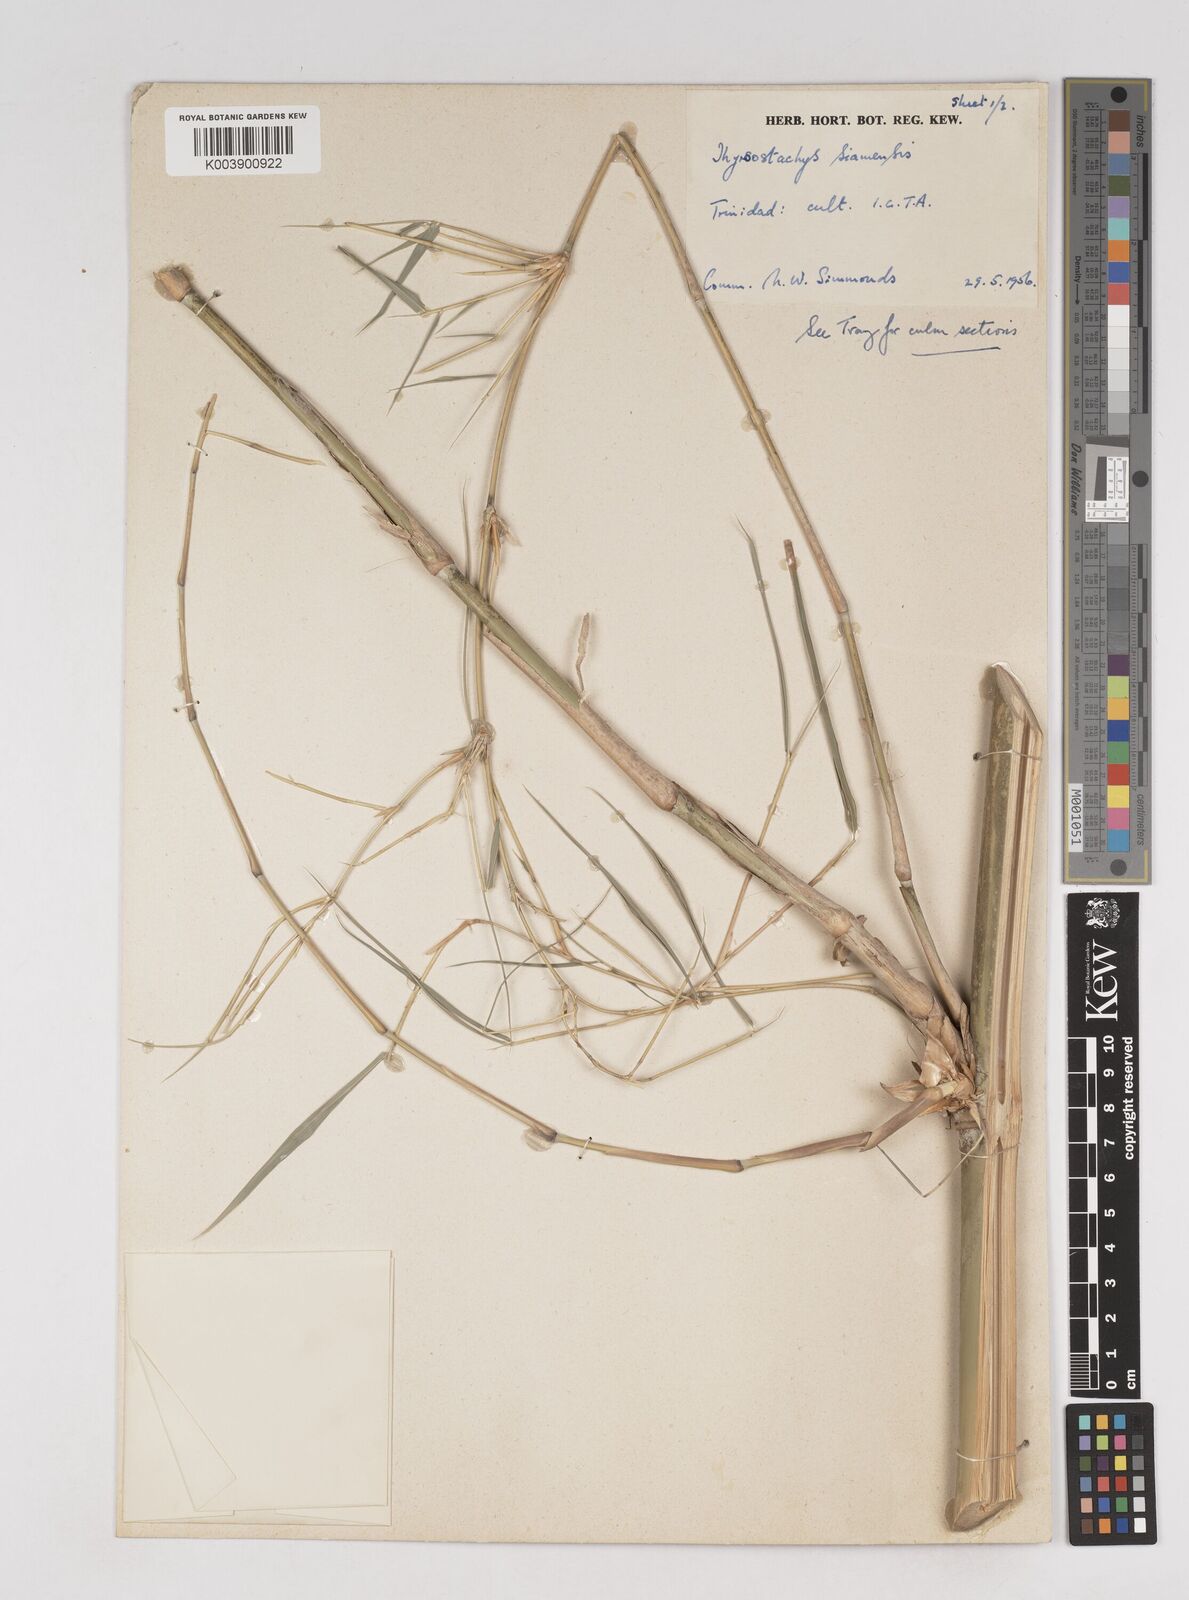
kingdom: Plantae
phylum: Tracheophyta
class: Liliopsida
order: Poales
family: Poaceae
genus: Thyrsostachys
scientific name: Thyrsostachys siamensis
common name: Thailand bamboo
